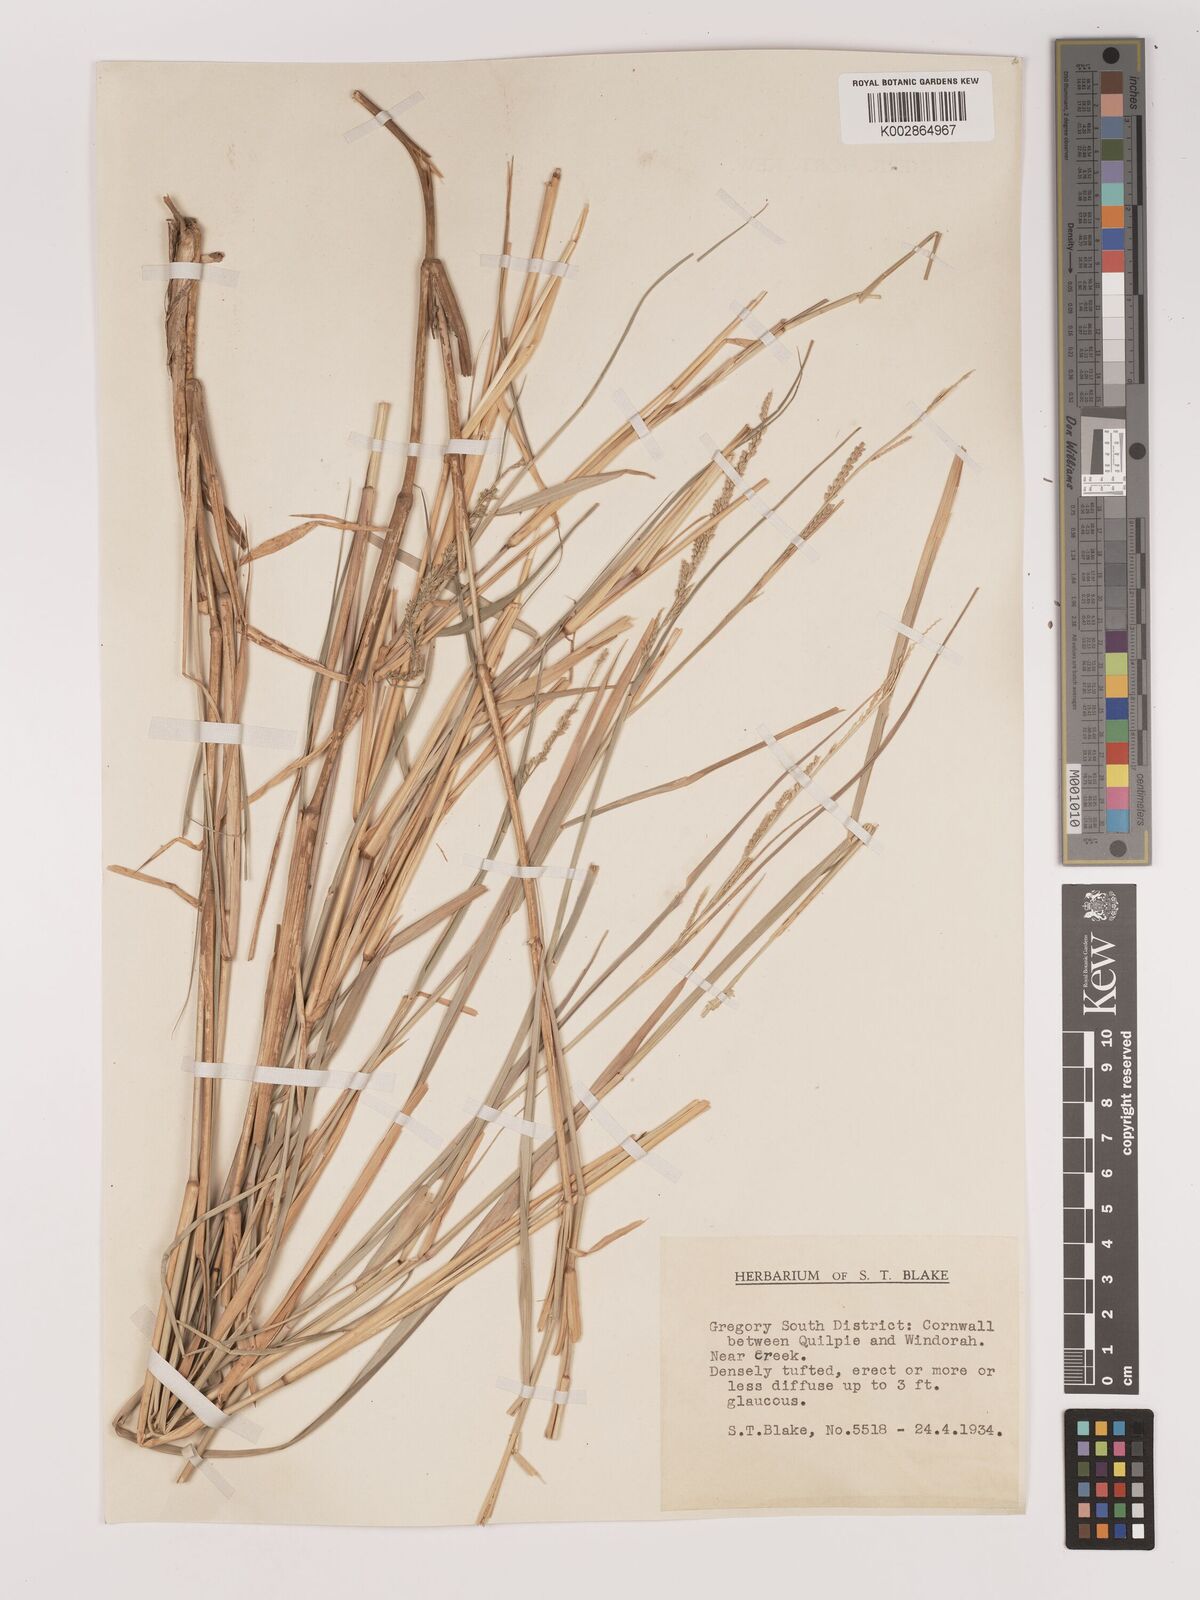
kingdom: Plantae
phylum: Tracheophyta
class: Liliopsida
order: Poales
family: Poaceae
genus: Setaria
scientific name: Setaria
